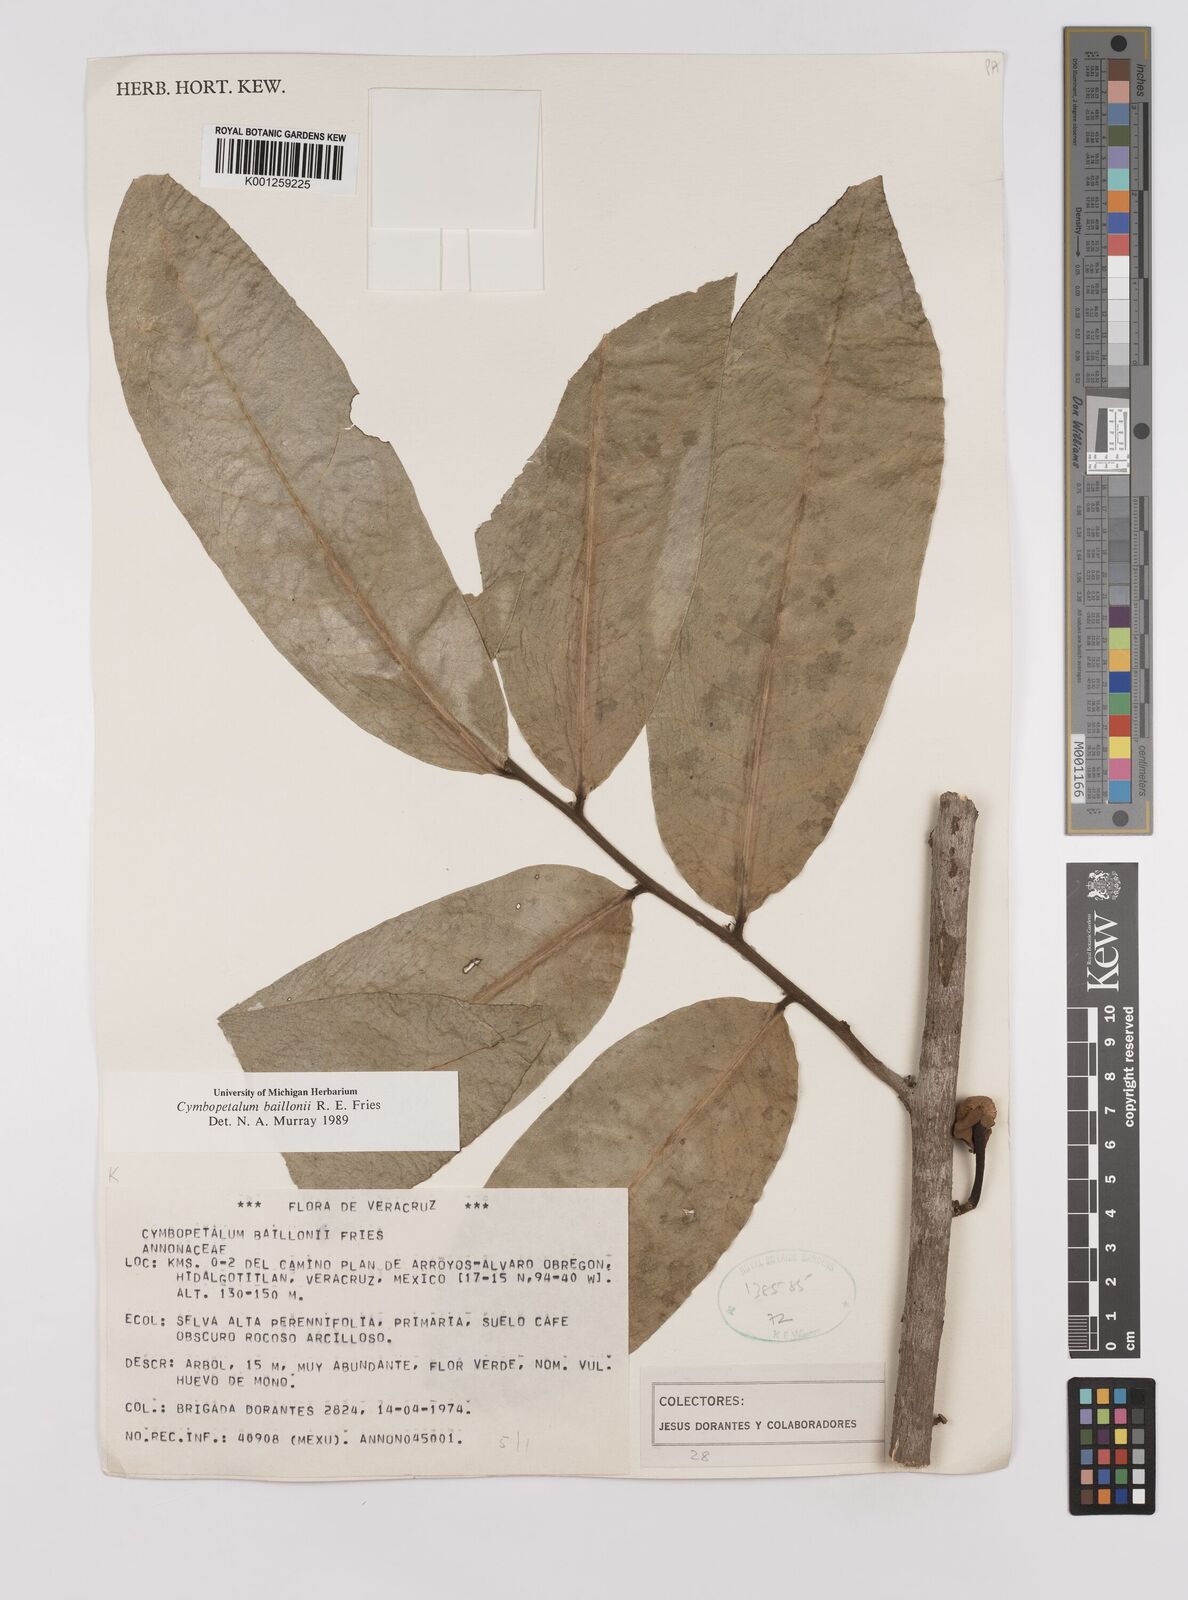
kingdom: Plantae
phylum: Tracheophyta
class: Magnoliopsida
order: Magnoliales
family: Annonaceae
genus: Cymbopetalum
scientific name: Cymbopetalum baillonii
